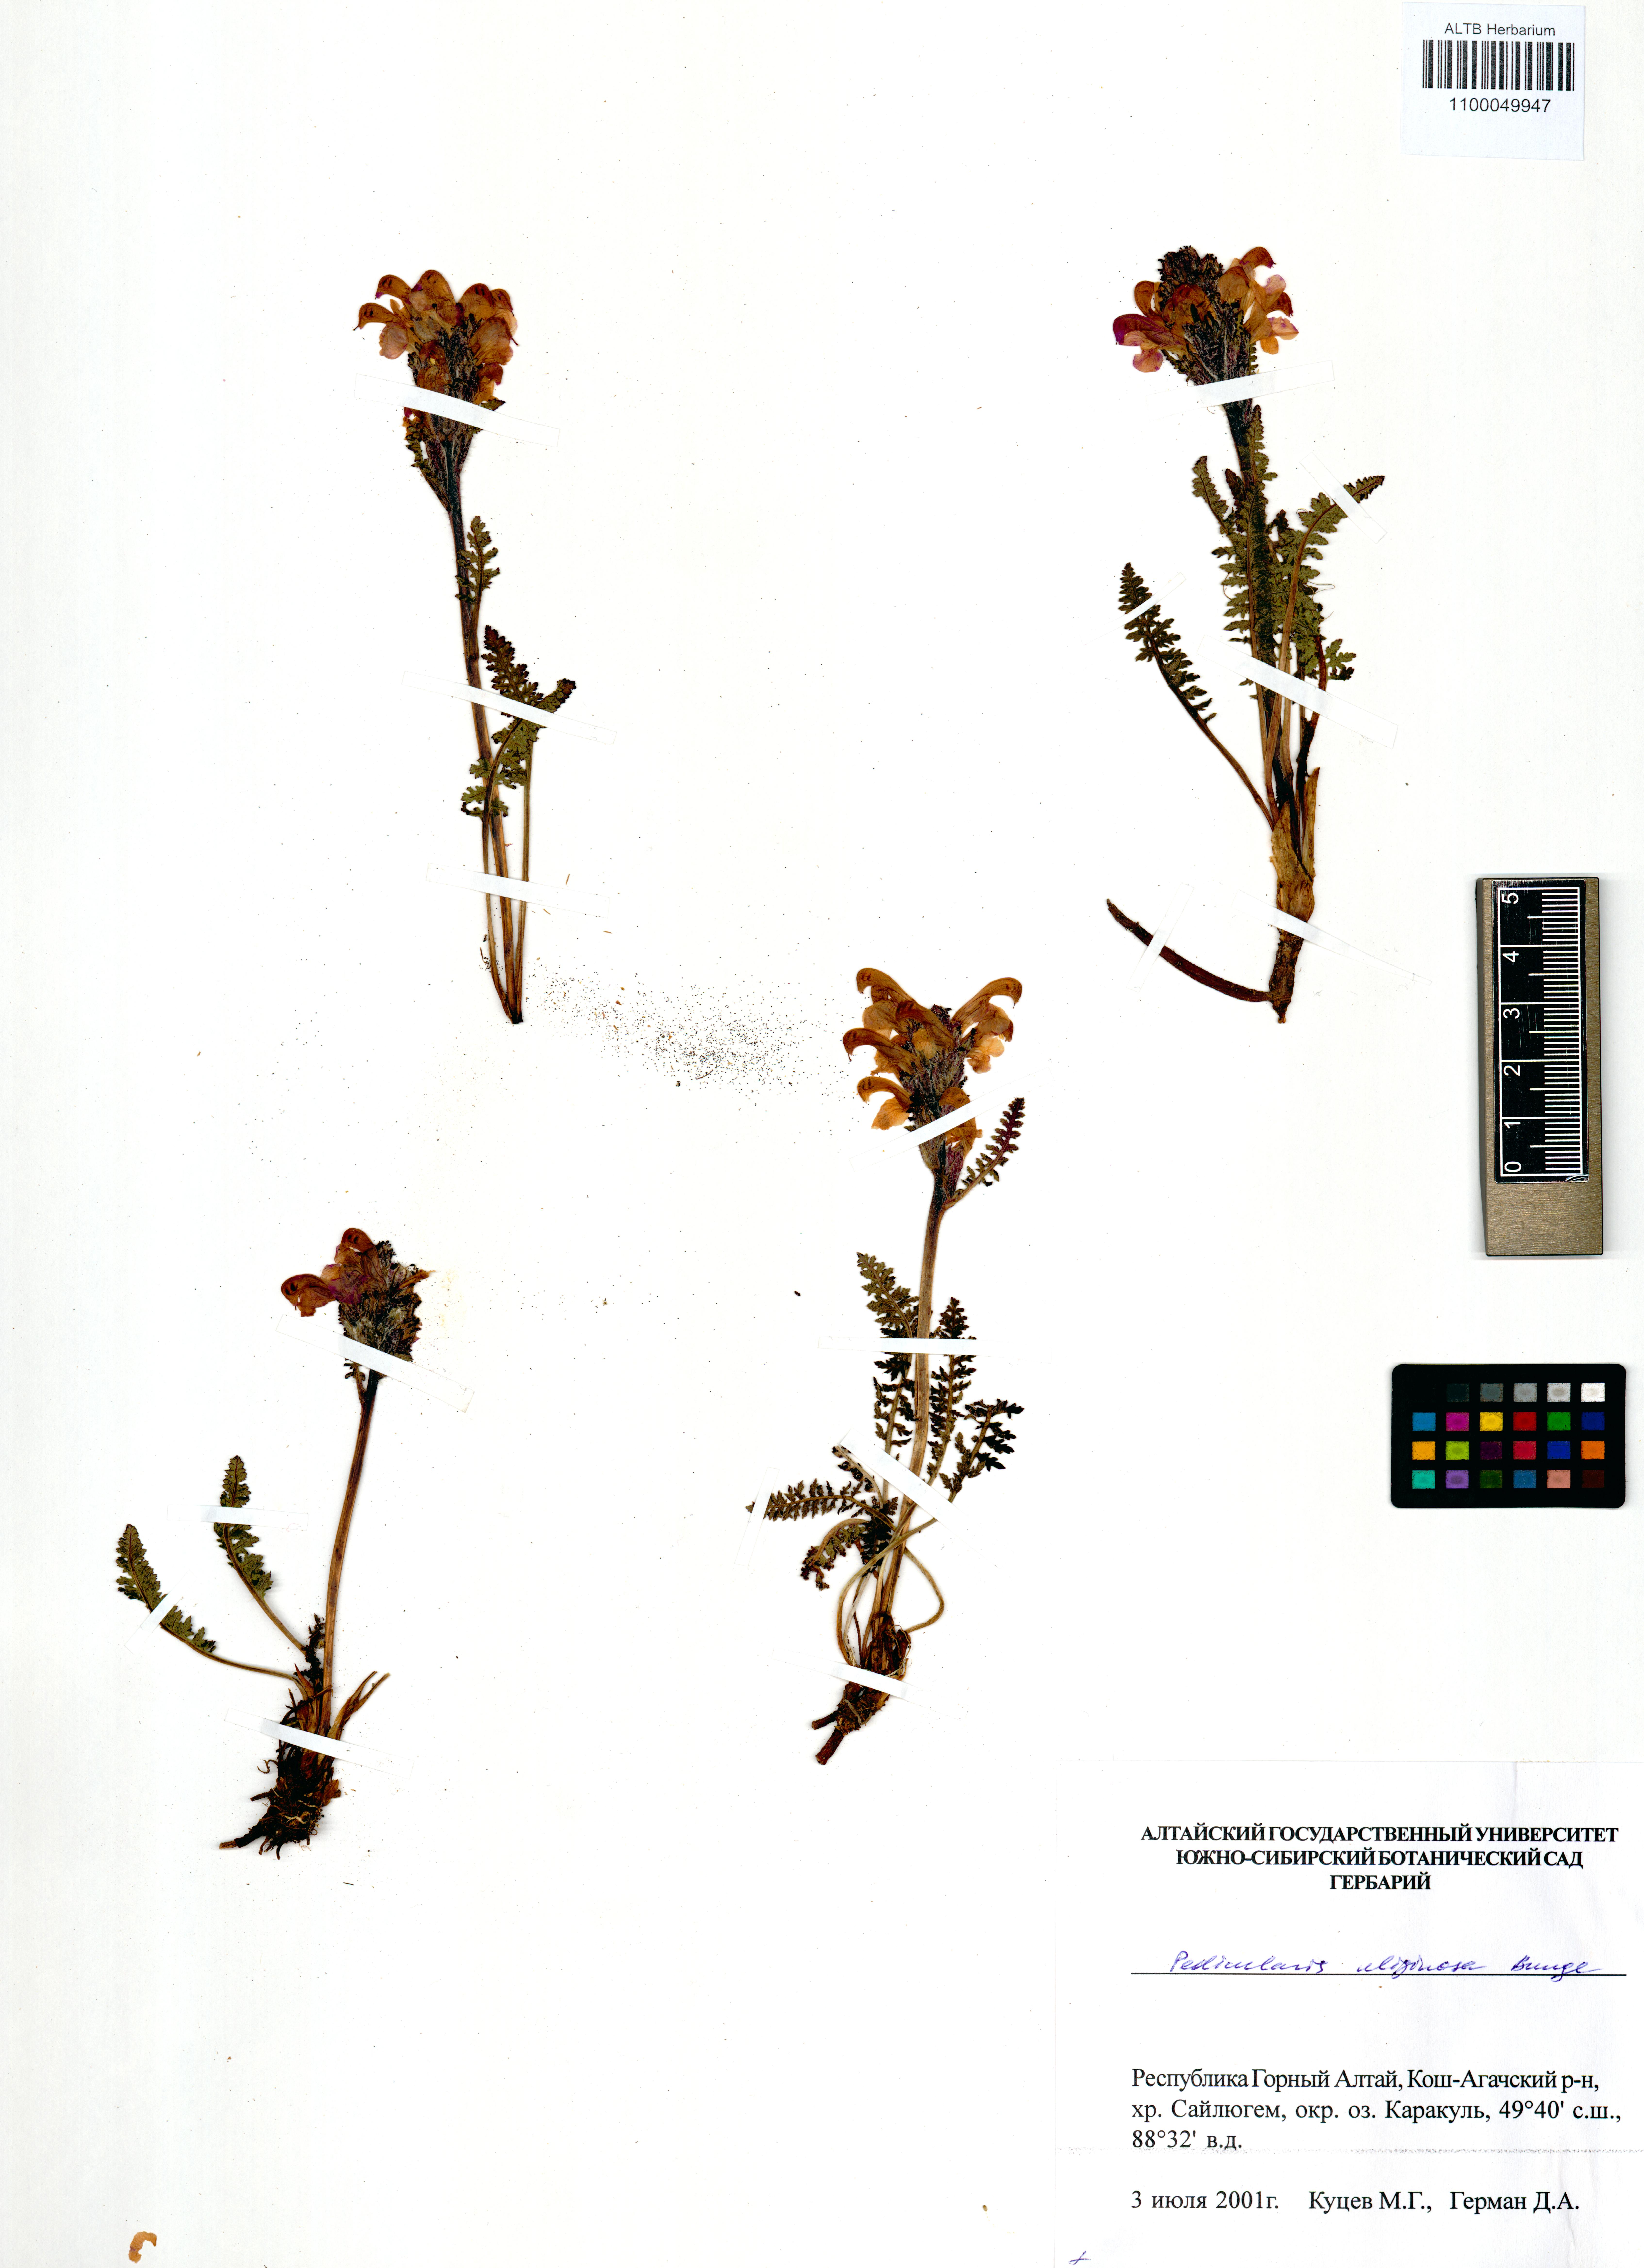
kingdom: Plantae
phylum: Tracheophyta
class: Magnoliopsida
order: Lamiales
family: Orobanchaceae
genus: Pedicularis
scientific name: Pedicularis uliginosa
